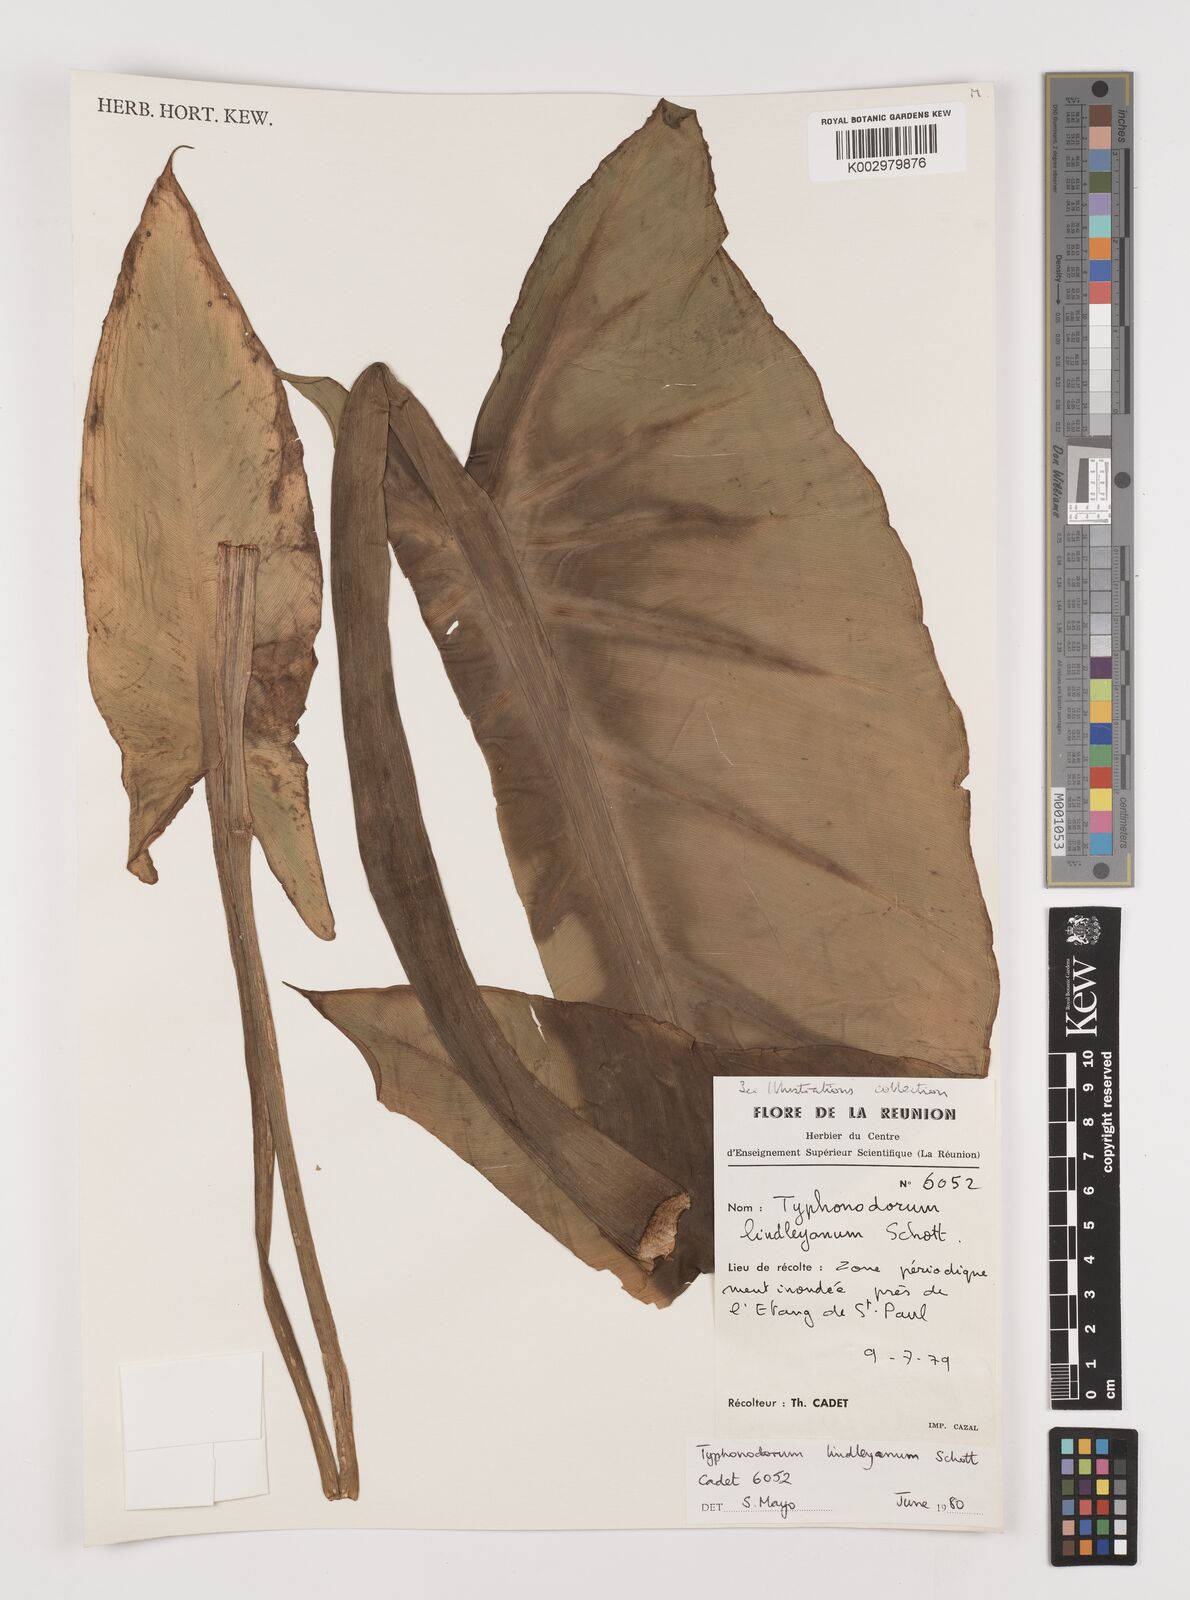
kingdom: Plantae
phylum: Tracheophyta
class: Liliopsida
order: Alismatales
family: Araceae
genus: Typhonodorum
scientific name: Typhonodorum lindleyanum
